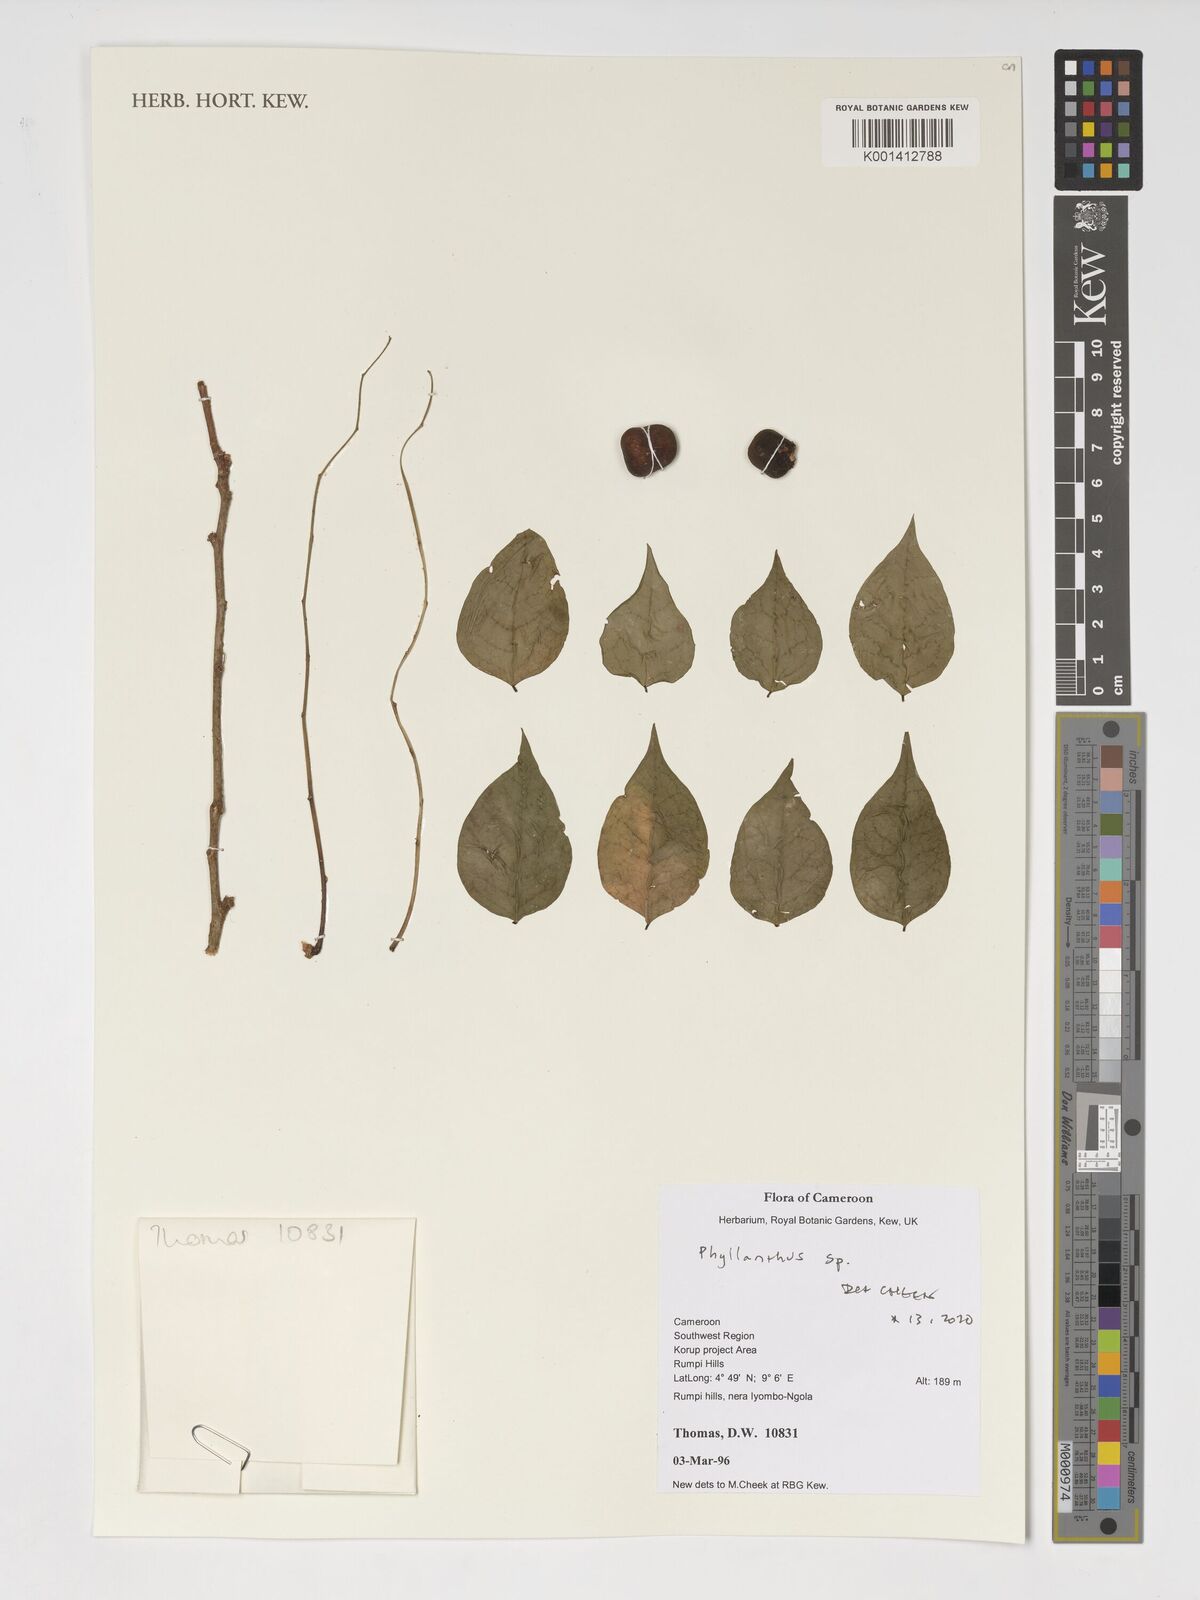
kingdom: Plantae
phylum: Tracheophyta
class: Magnoliopsida
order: Malpighiales
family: Phyllanthaceae
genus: Phyllanthus
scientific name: Phyllanthus
